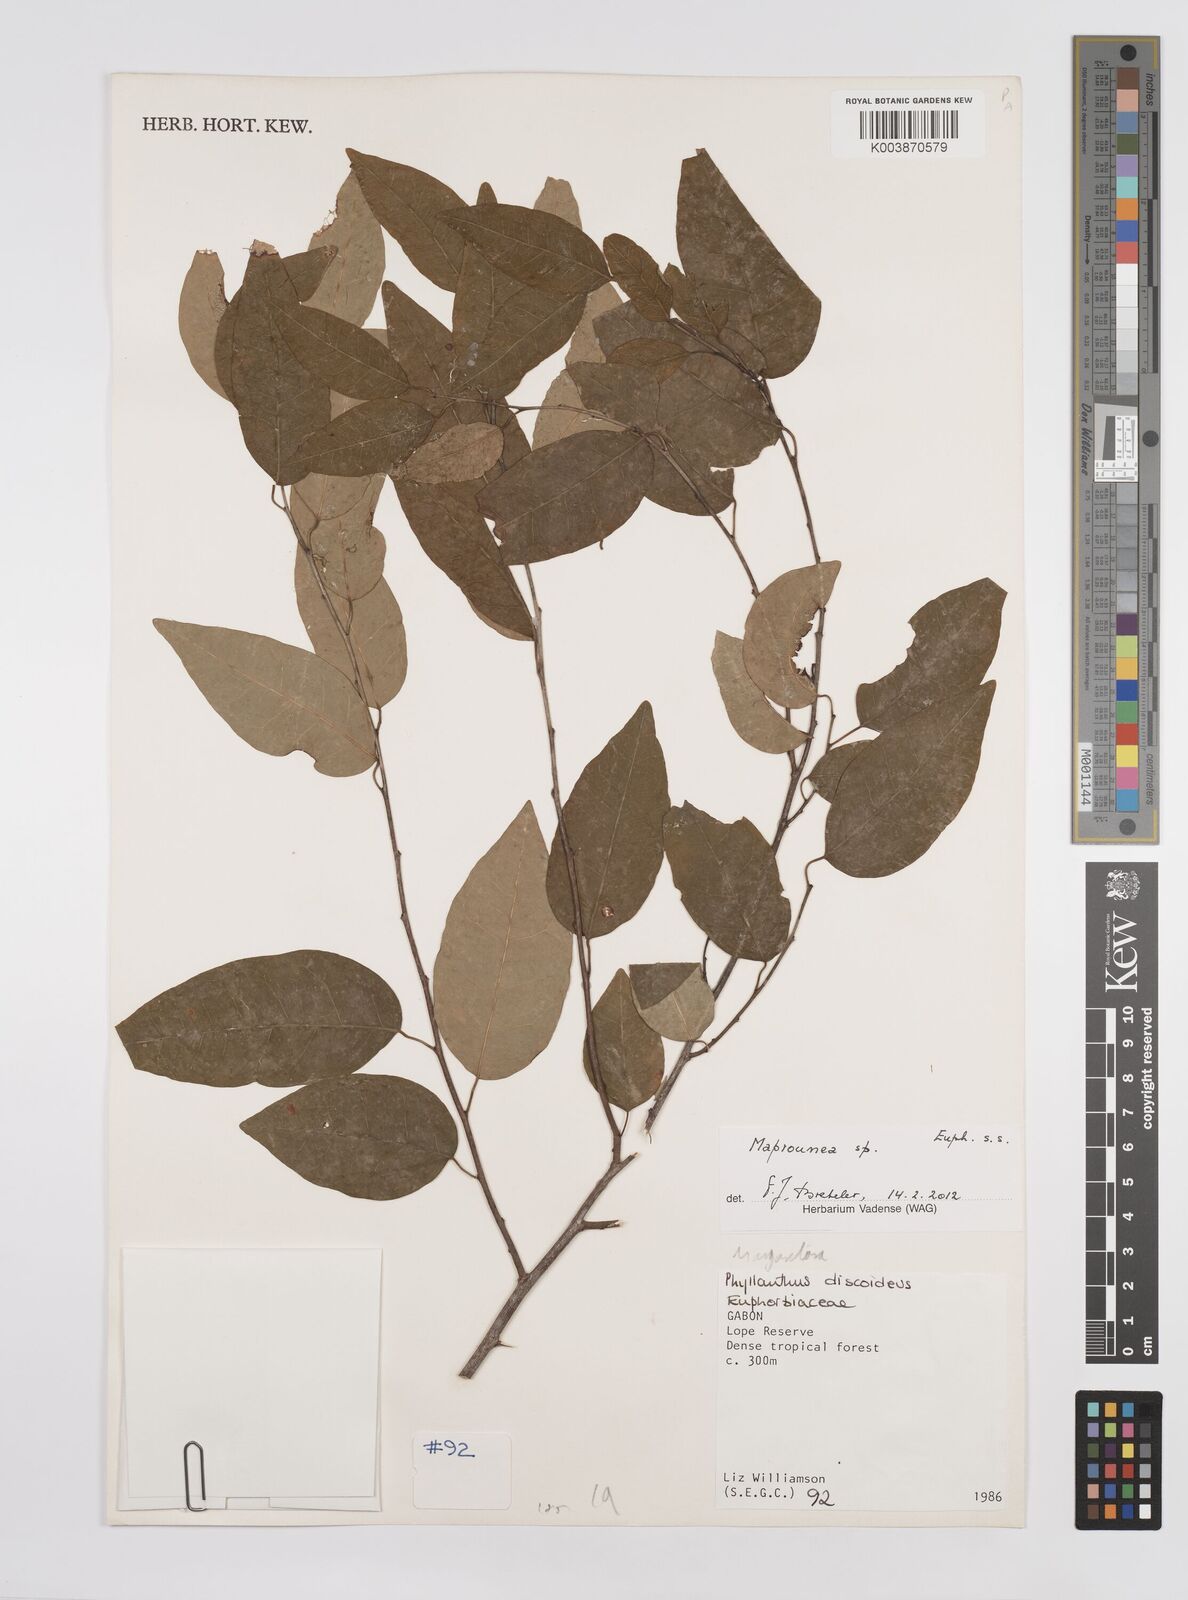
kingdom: Plantae
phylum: Tracheophyta
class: Magnoliopsida
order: Malpighiales
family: Euphorbiaceae
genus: Maprounea
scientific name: Maprounea
